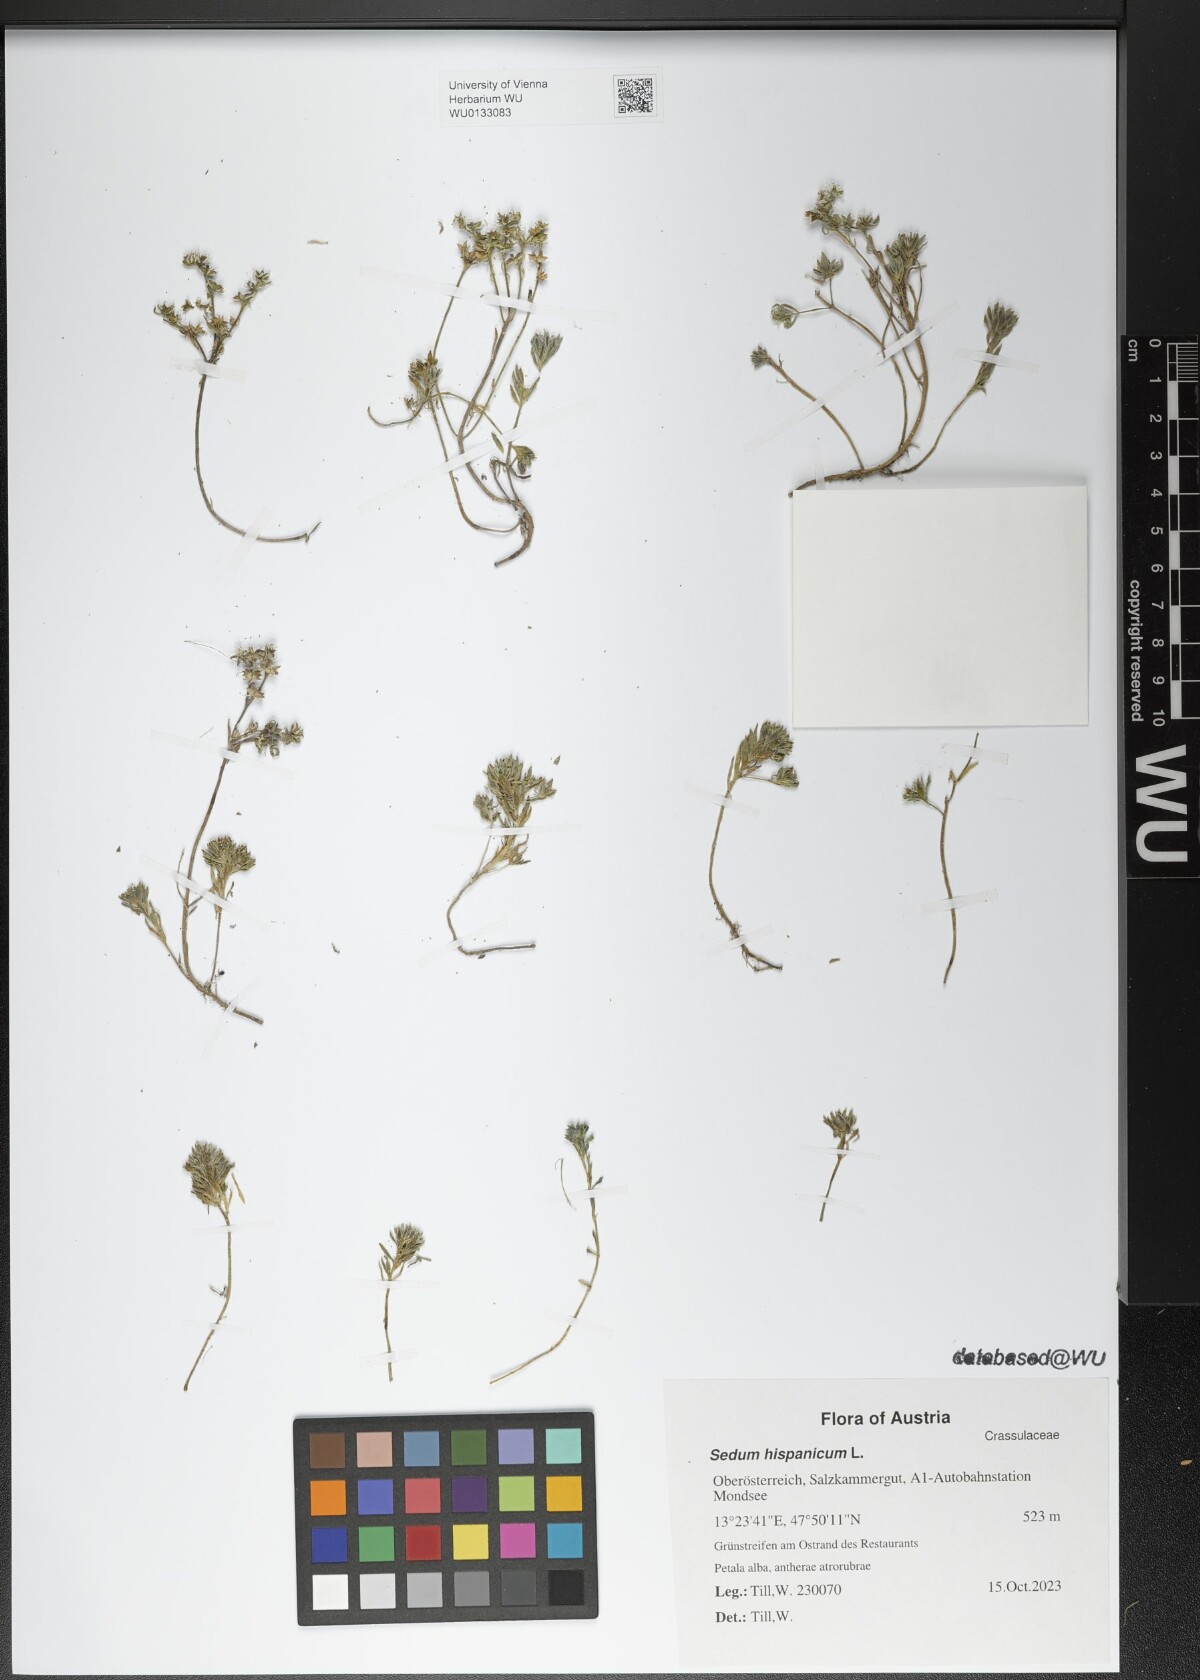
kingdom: Plantae
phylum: Tracheophyta
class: Magnoliopsida
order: Saxifragales
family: Crassulaceae
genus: Sedum
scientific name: Sedum hispanicum
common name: Spanish stonecrop
